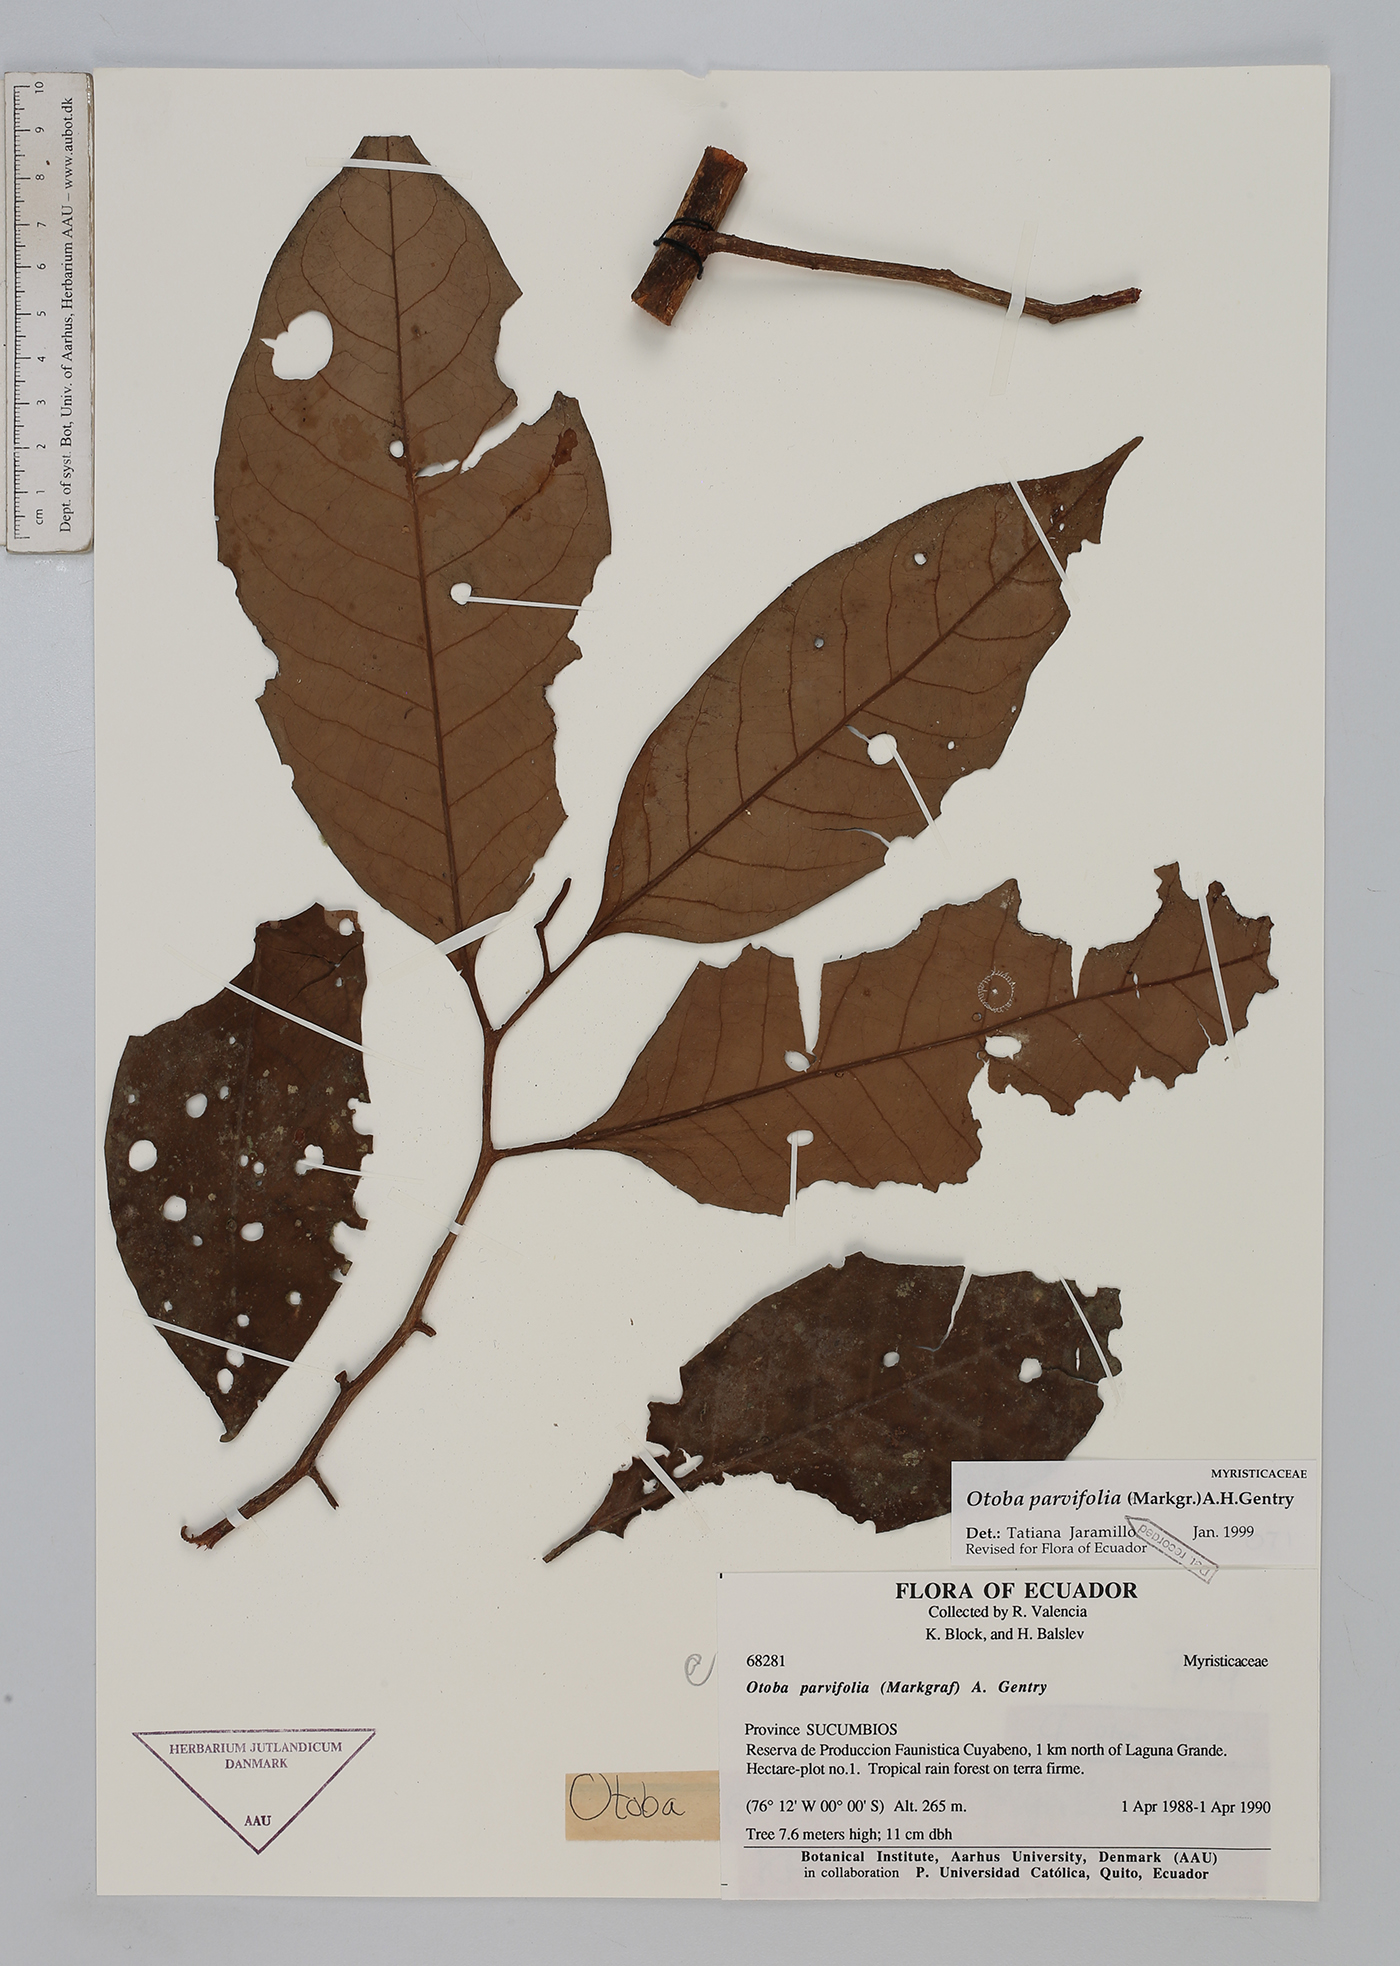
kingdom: Plantae
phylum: Tracheophyta
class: Magnoliopsida
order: Magnoliales
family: Myristicaceae
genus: Otoba
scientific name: Otoba parvifolia
